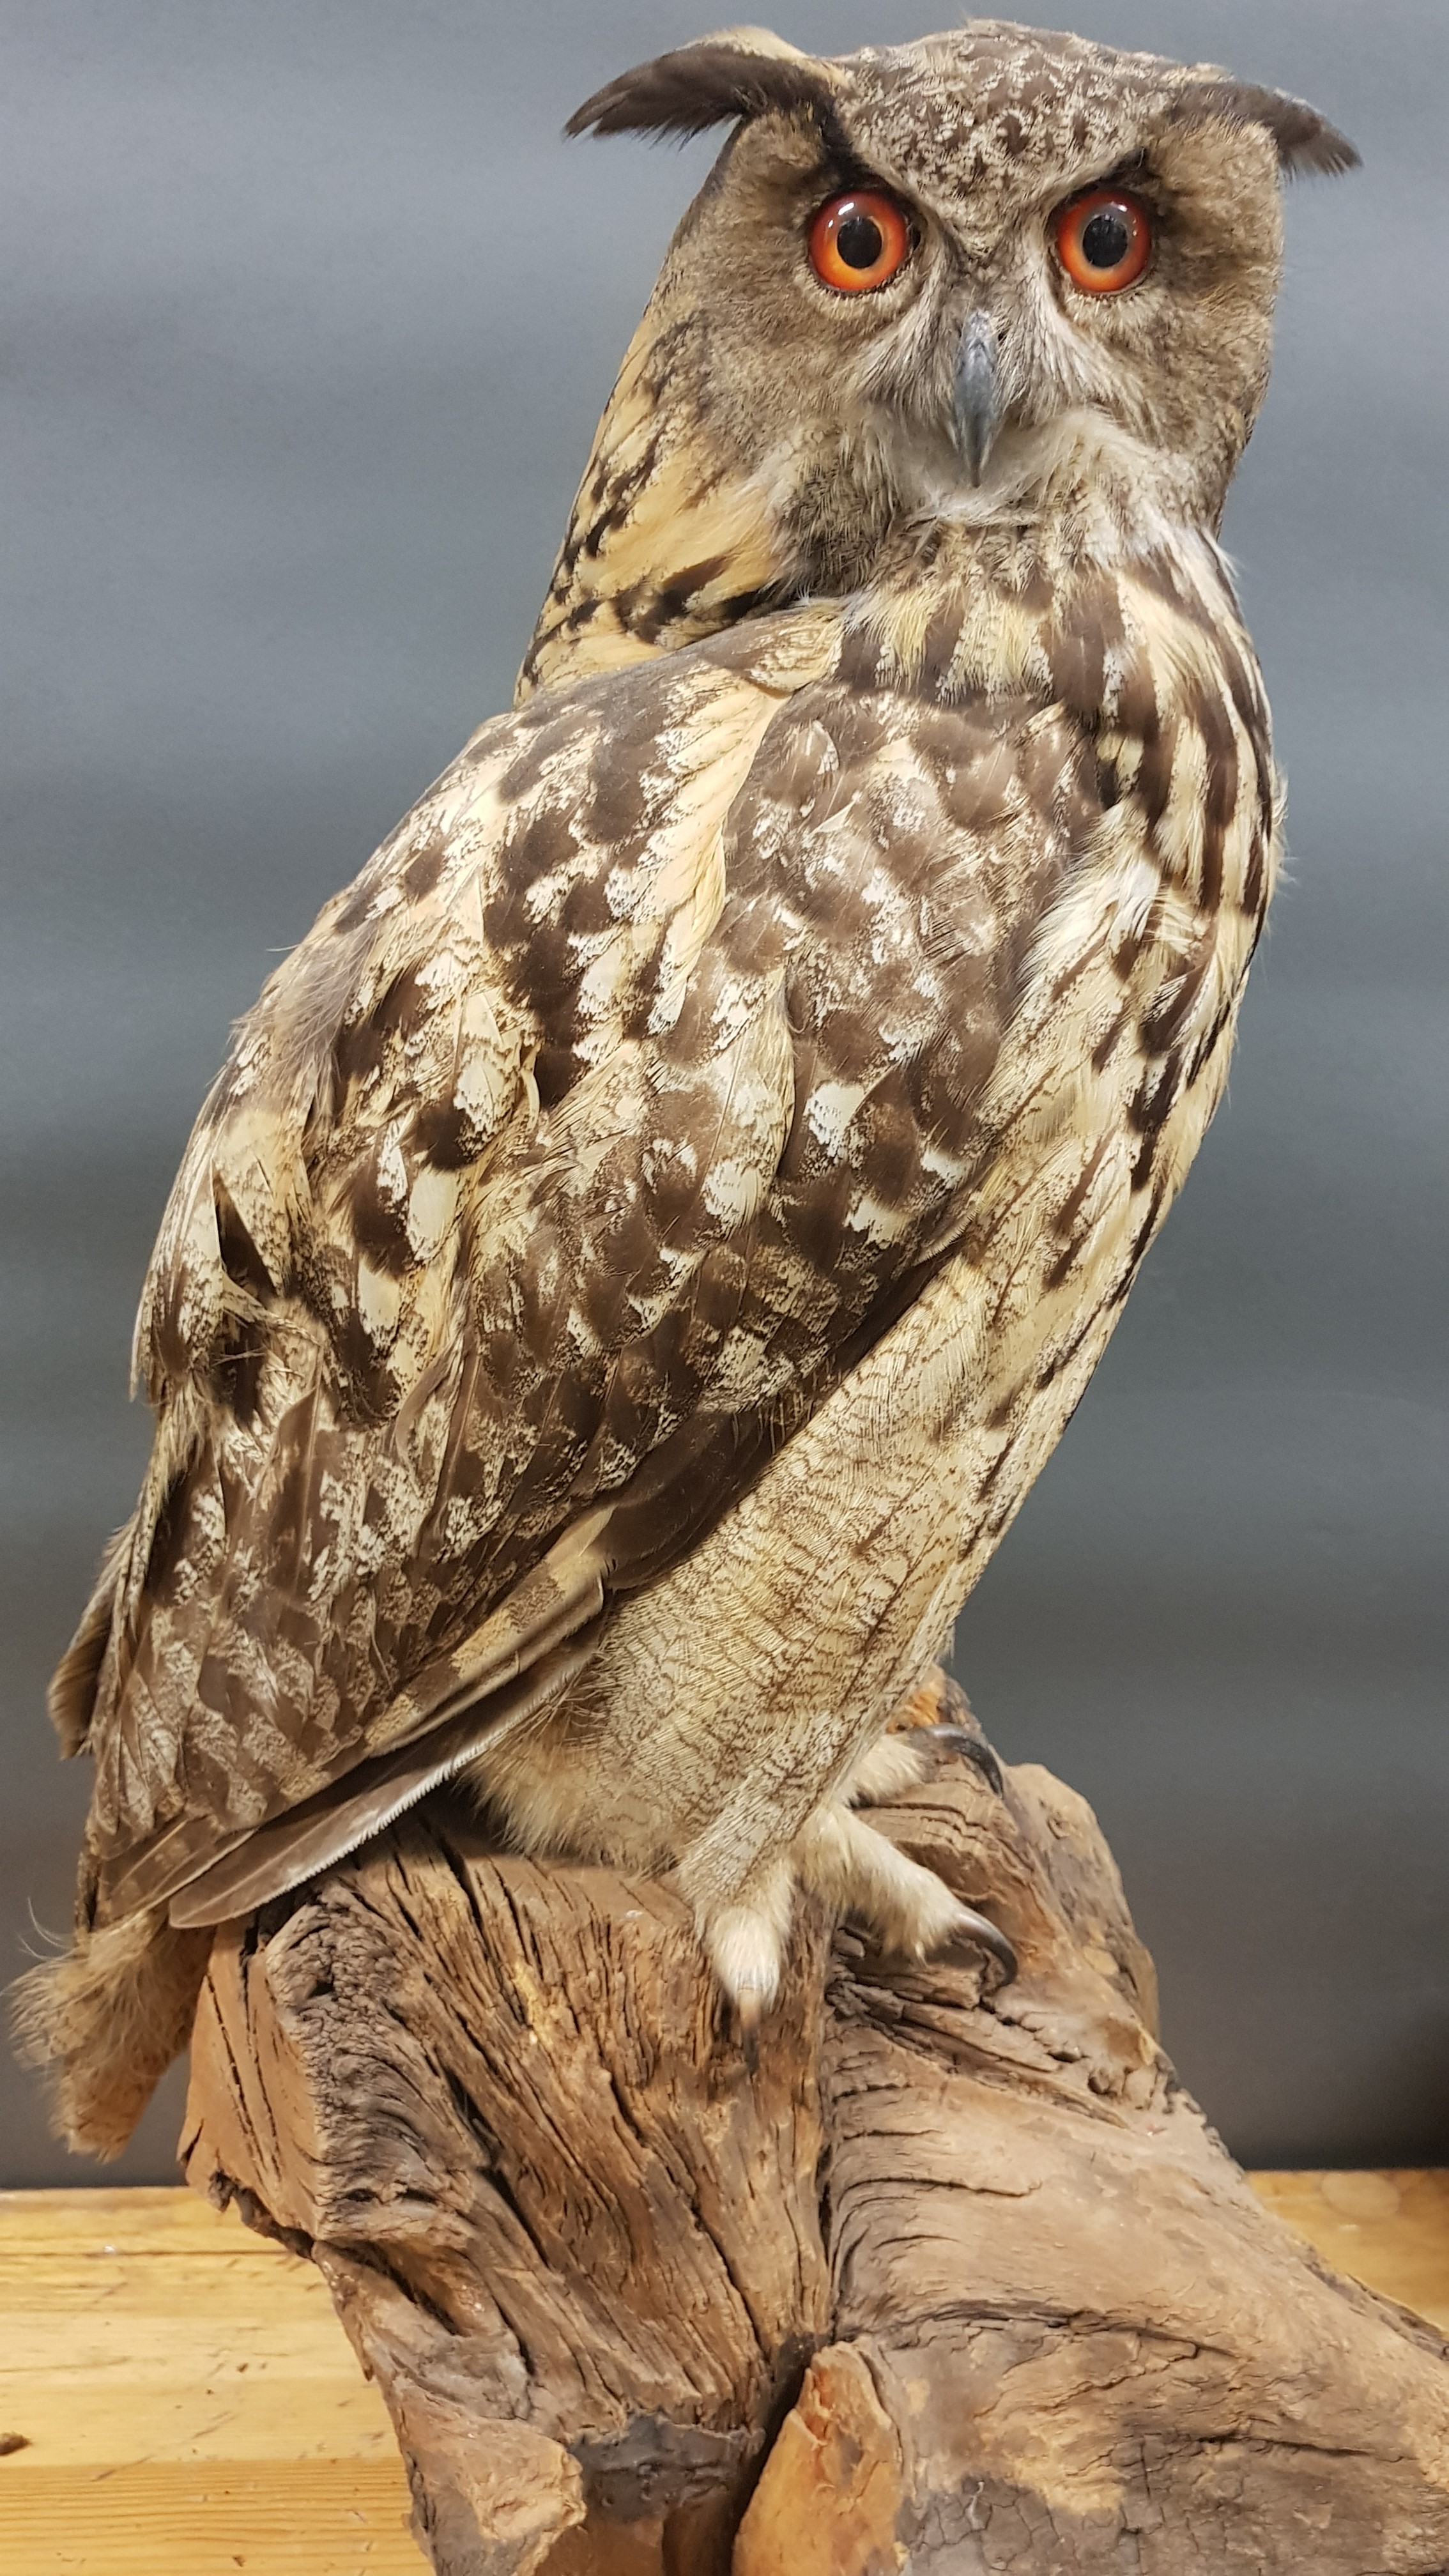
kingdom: Animalia
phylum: Chordata
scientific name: Chordata
